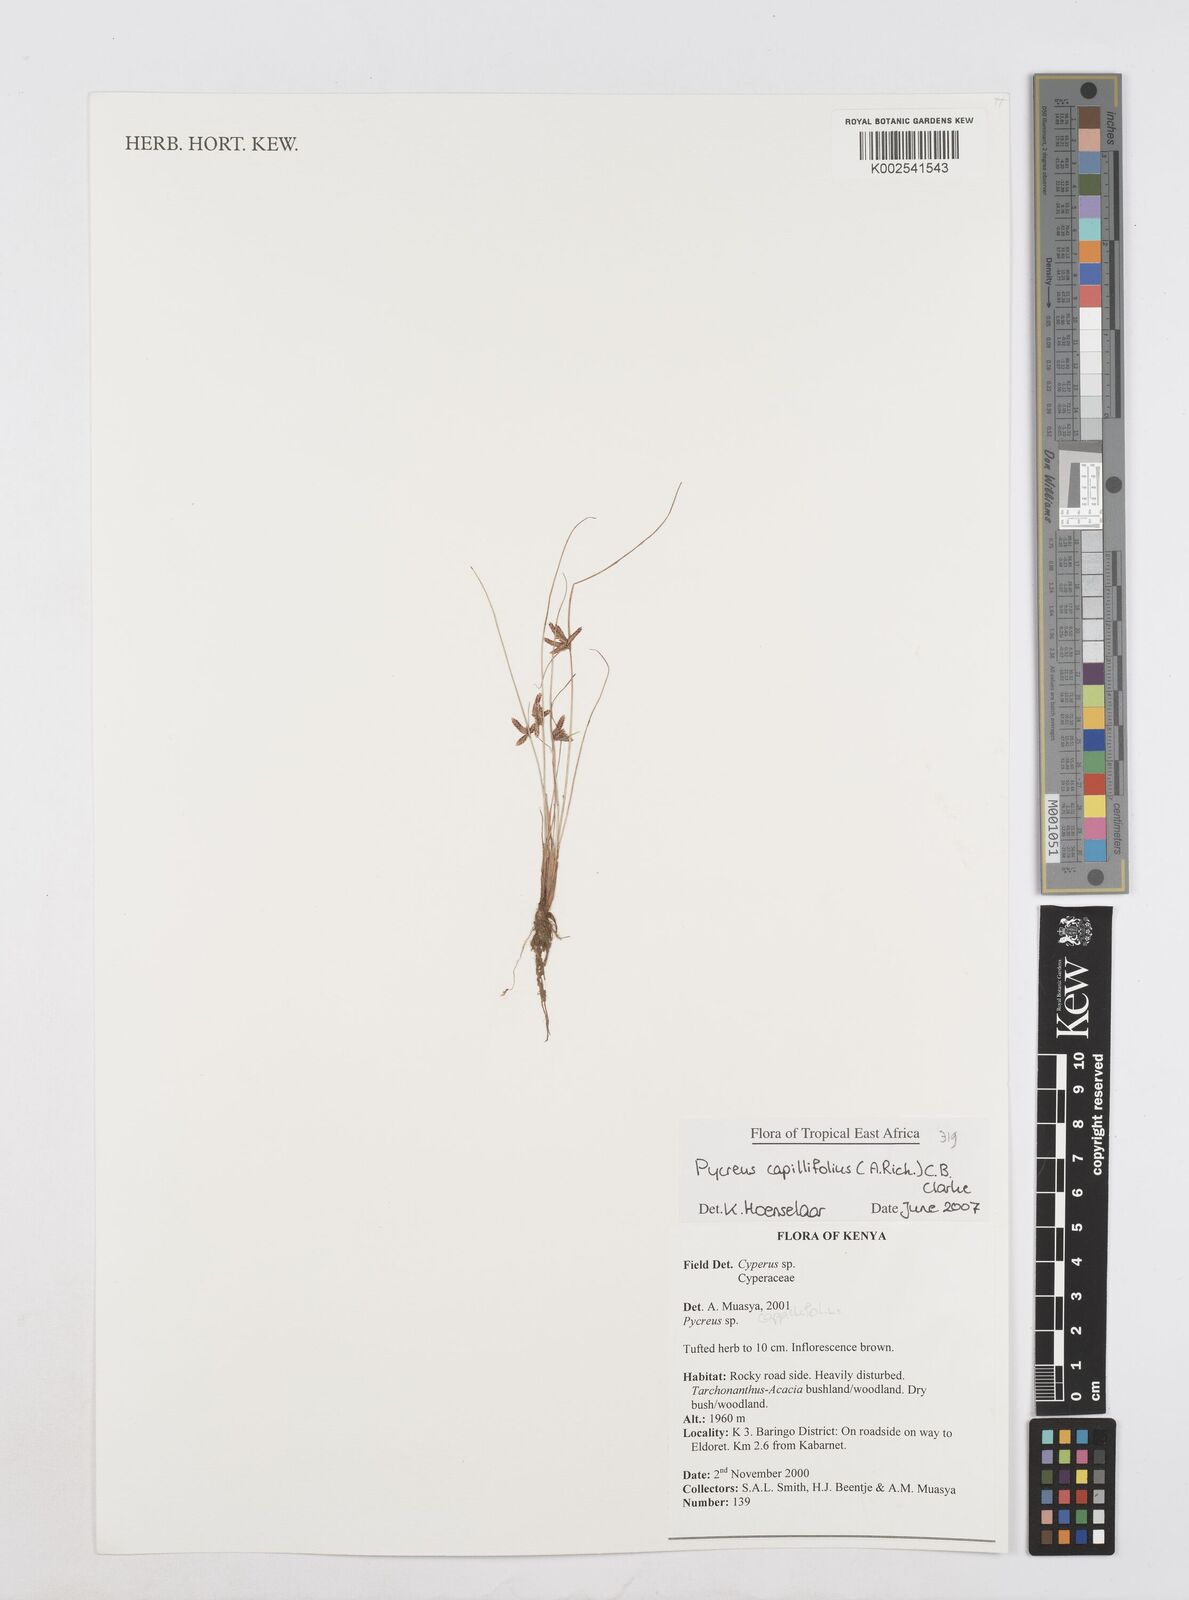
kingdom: Plantae
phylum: Tracheophyta
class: Liliopsida
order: Poales
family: Cyperaceae
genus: Cyperus
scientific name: Cyperus capillifolius
